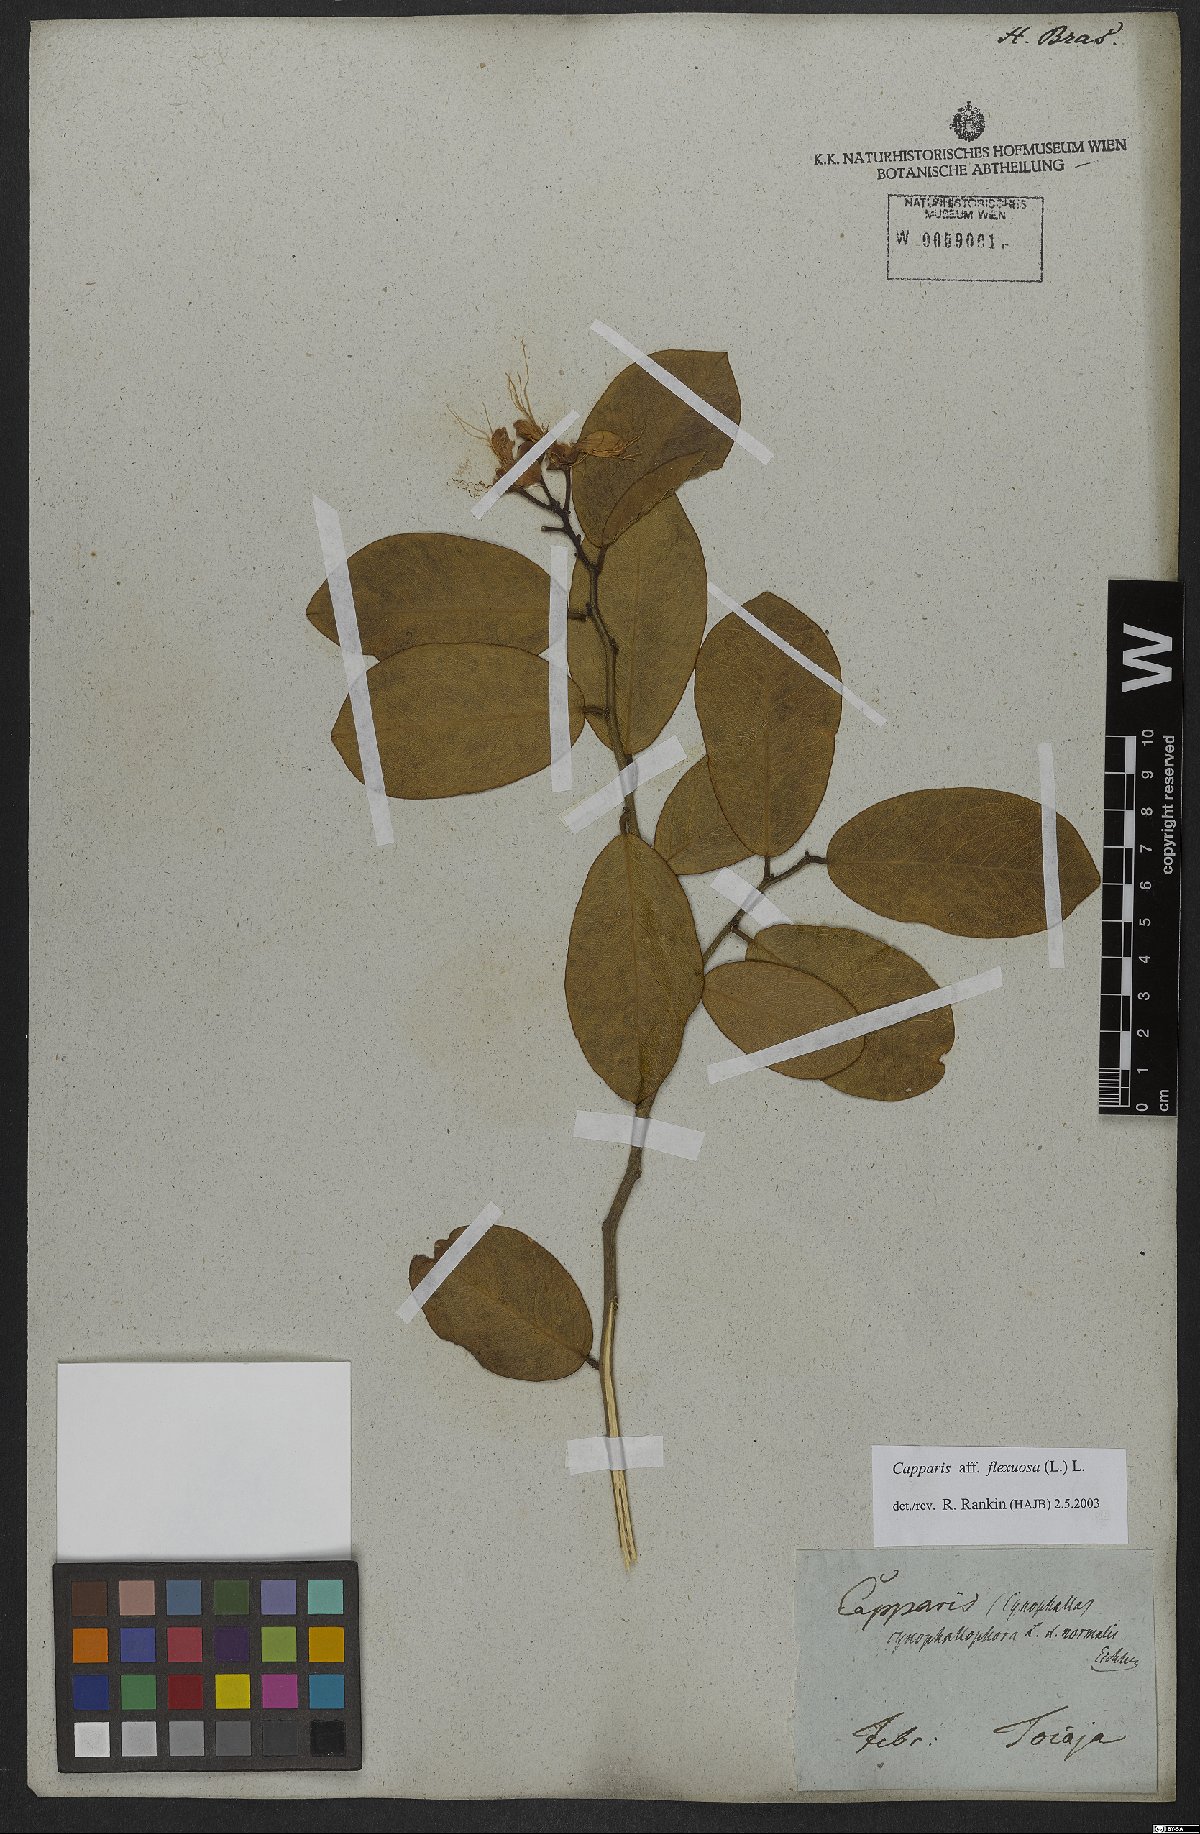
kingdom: Plantae
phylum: Tracheophyta
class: Magnoliopsida
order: Brassicales
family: Capparaceae
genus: Cynophalla
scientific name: Cynophalla flexuosa
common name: Capertree
